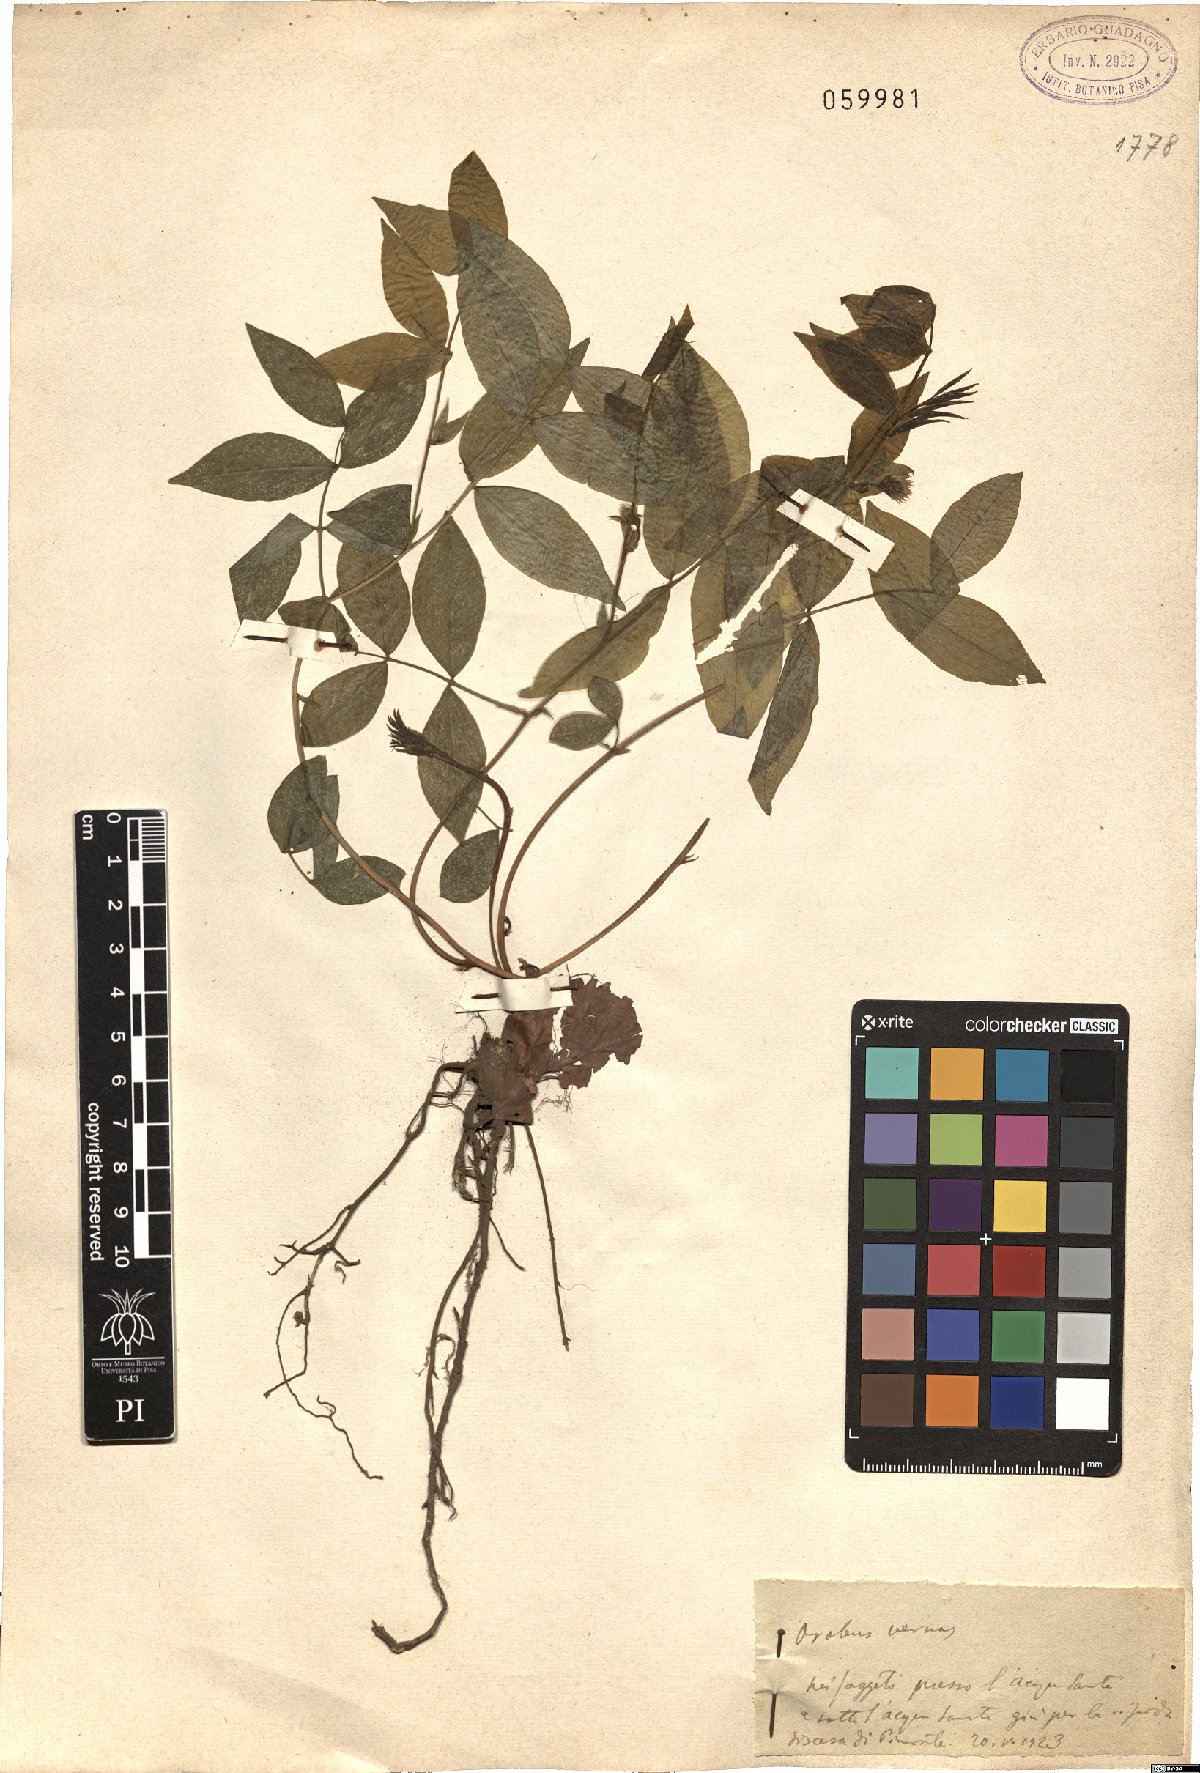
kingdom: Plantae
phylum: Tracheophyta
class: Magnoliopsida
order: Fabales
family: Fabaceae
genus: Lathyrus
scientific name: Lathyrus vernus
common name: Spring pea
